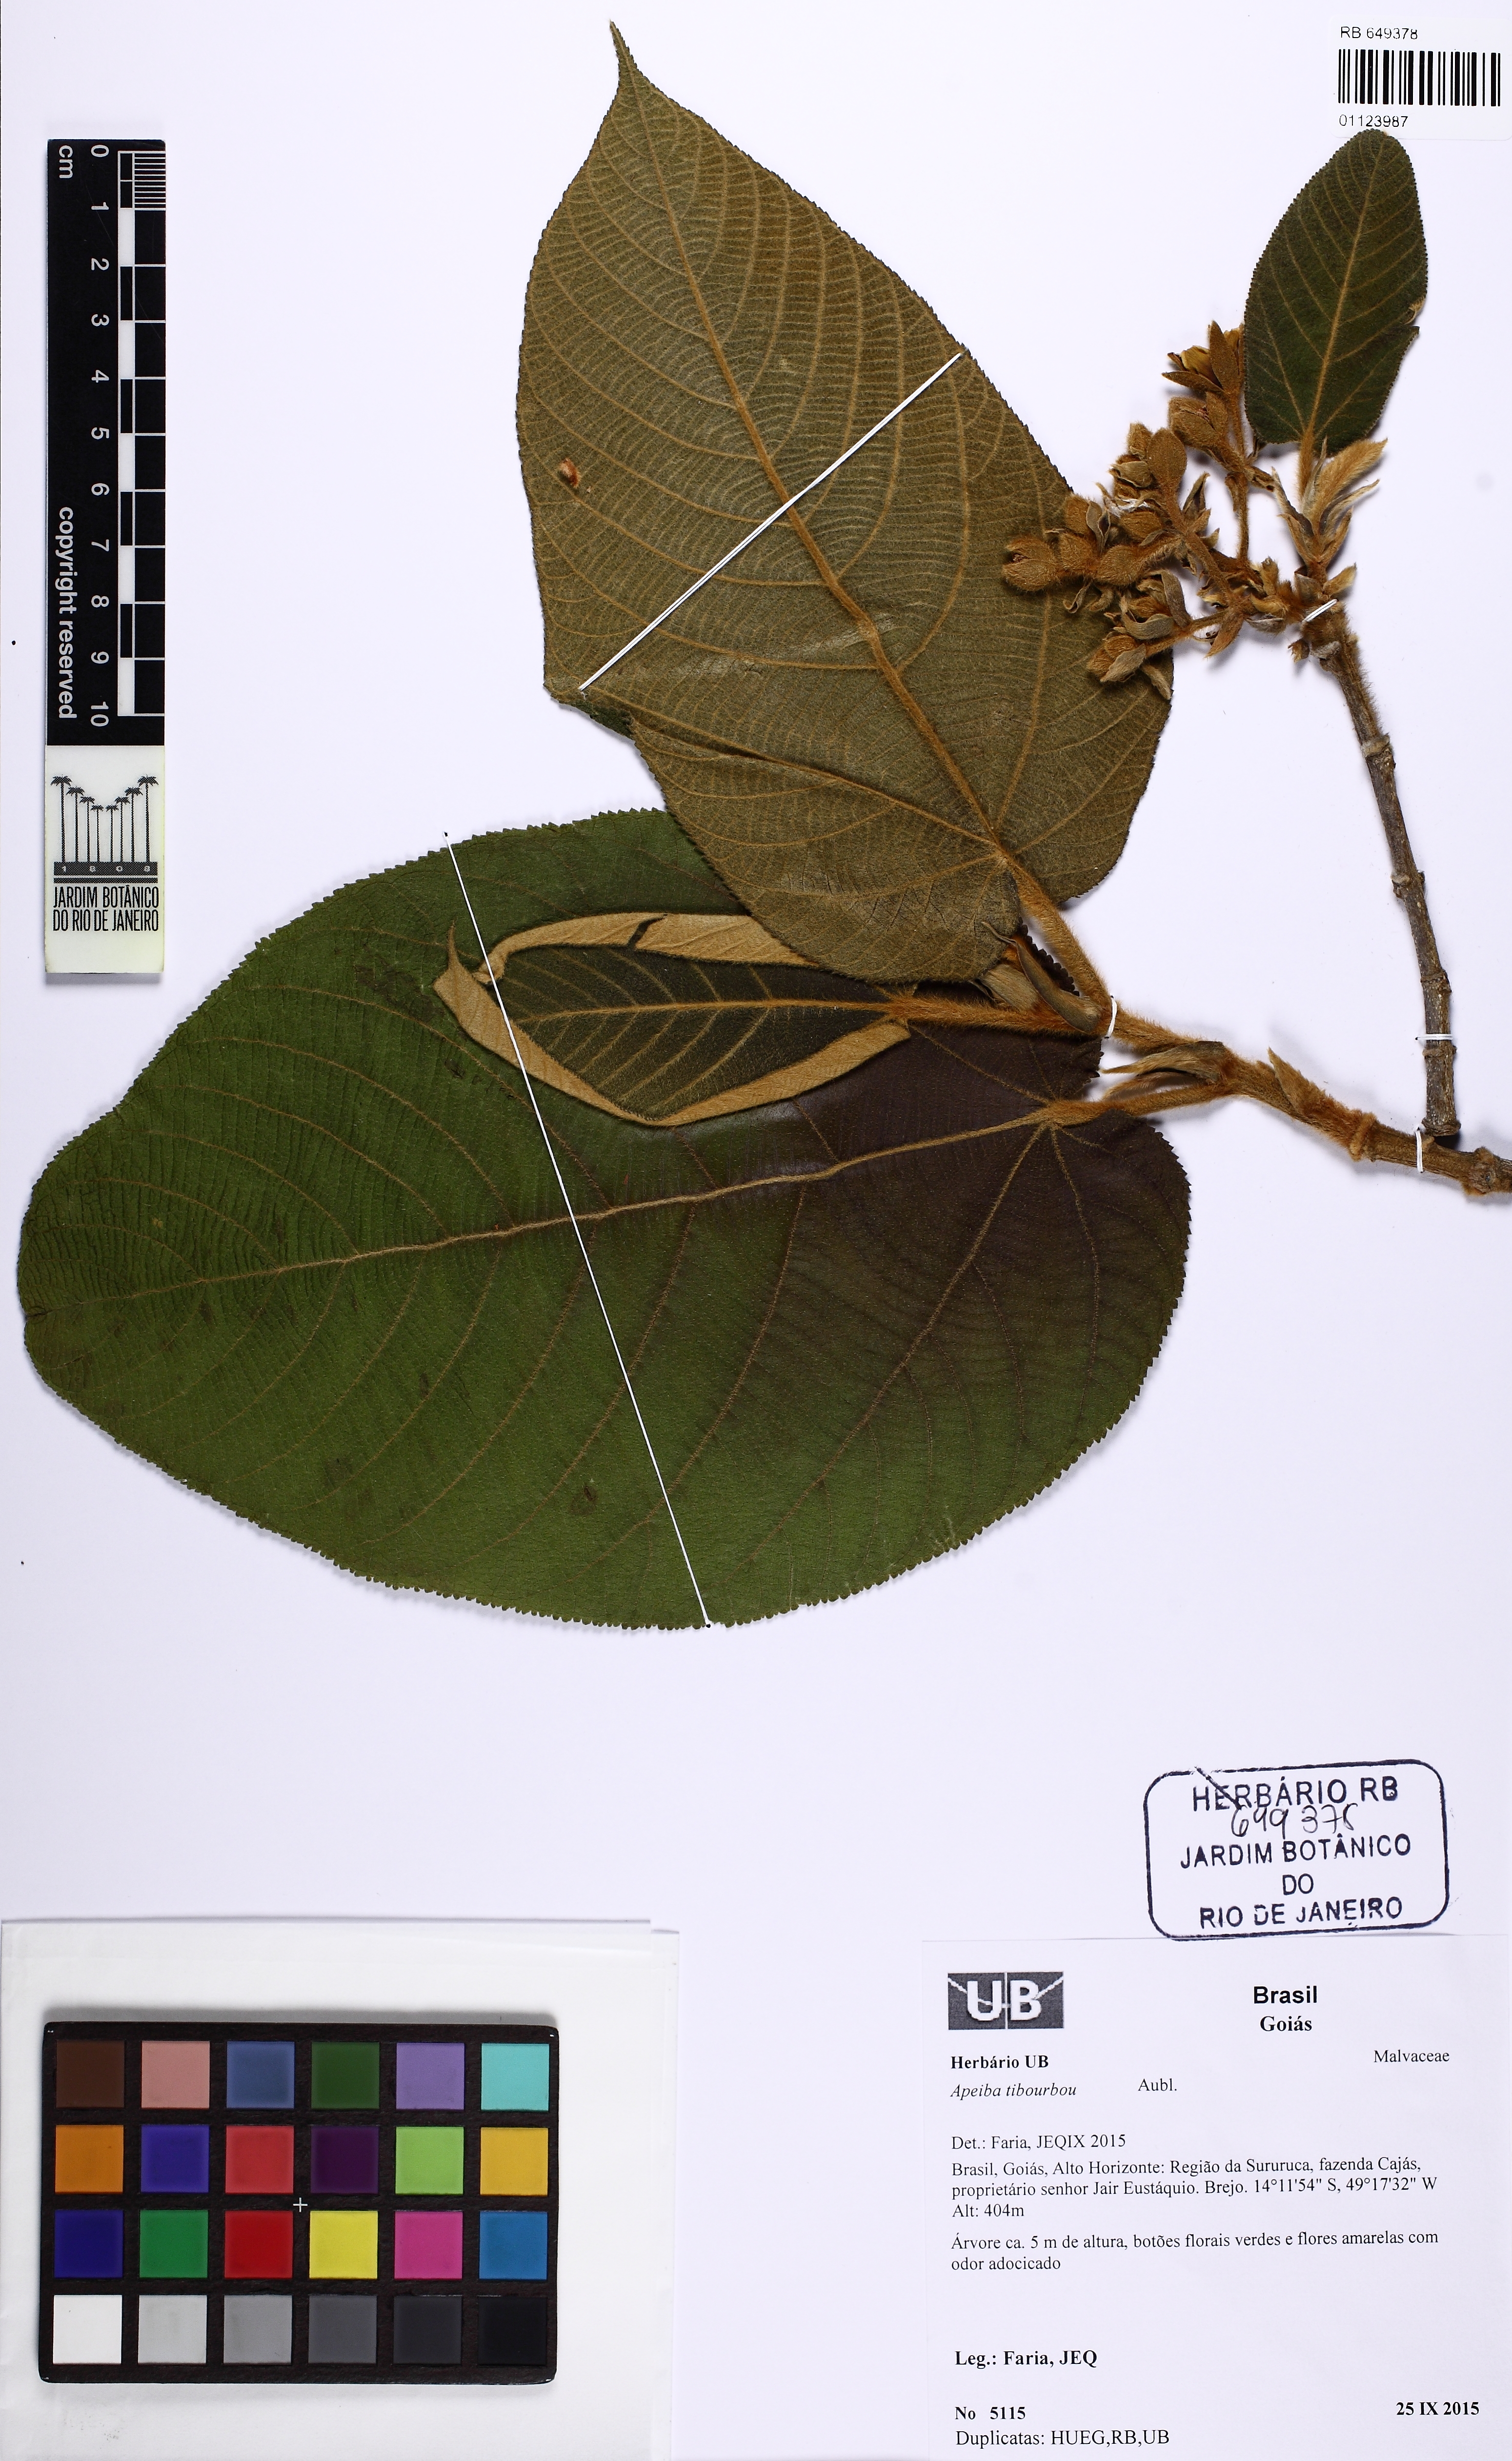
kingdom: Plantae
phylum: Tracheophyta
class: Magnoliopsida
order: Malvales
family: Malvaceae
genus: Apeiba
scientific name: Apeiba tibourbou
